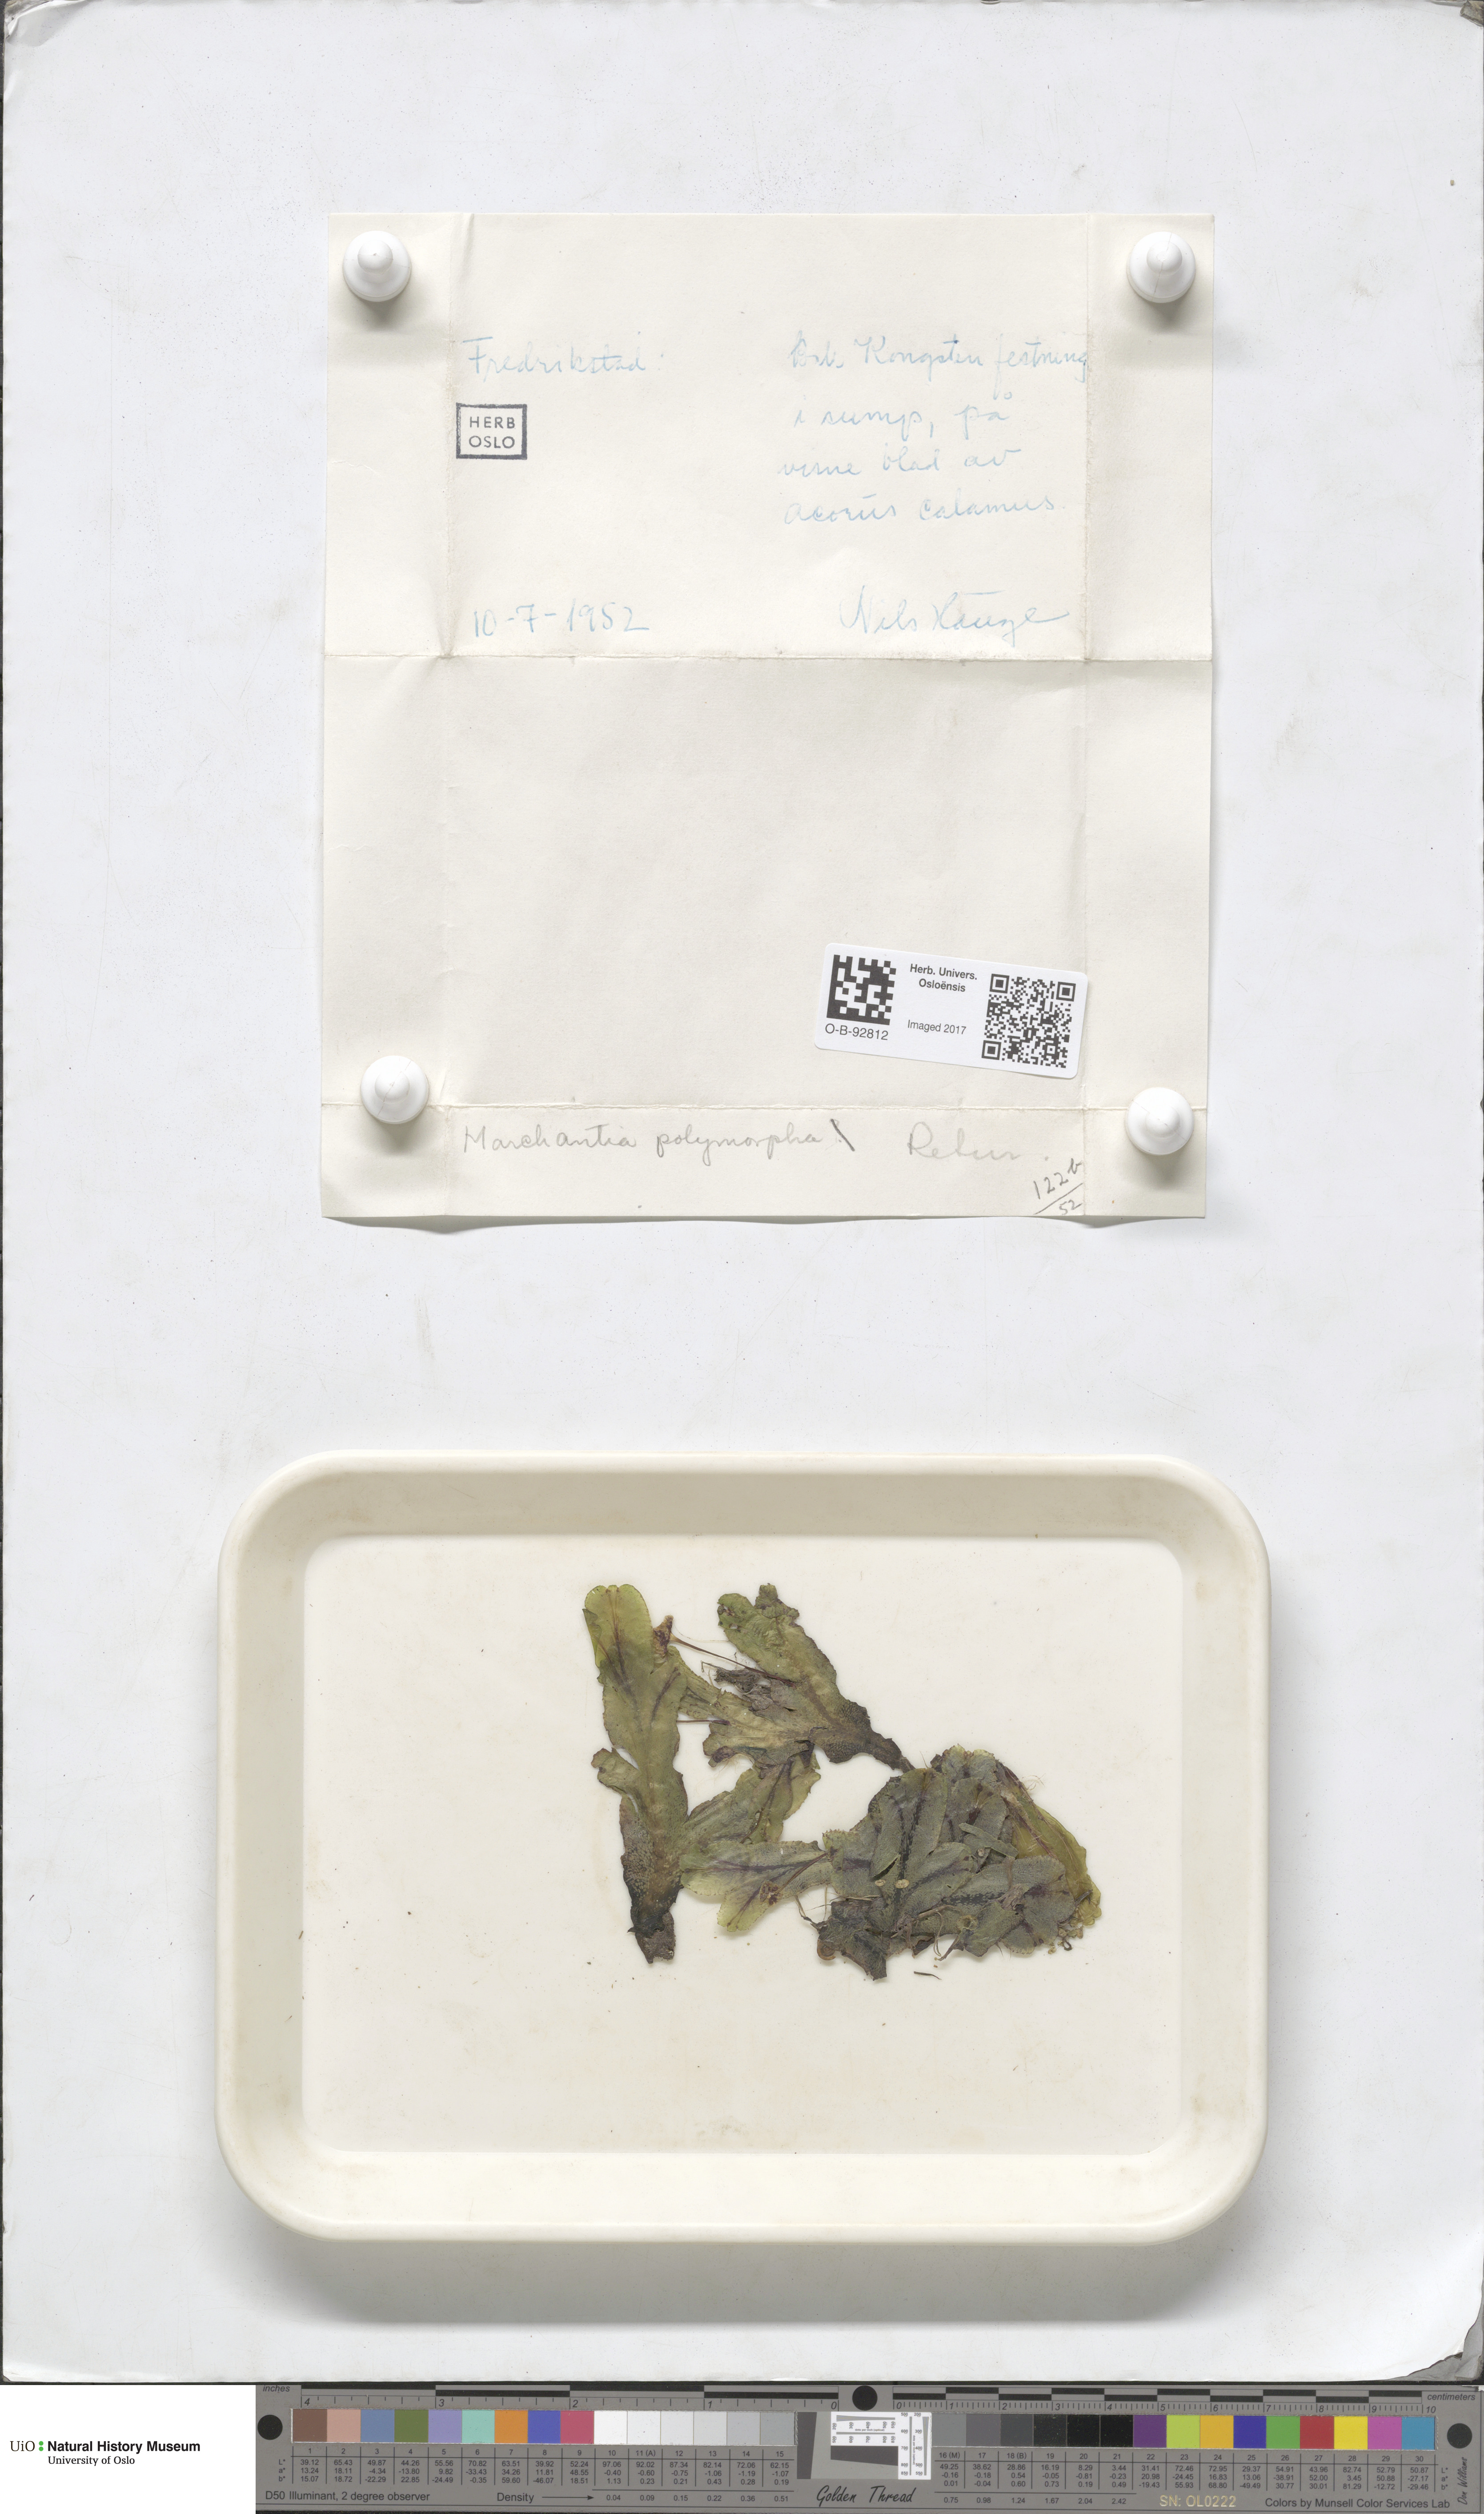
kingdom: Plantae
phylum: Marchantiophyta
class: Marchantiopsida
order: Marchantiales
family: Marchantiaceae
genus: Marchantia
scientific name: Marchantia polymorpha
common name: Common liverwort
